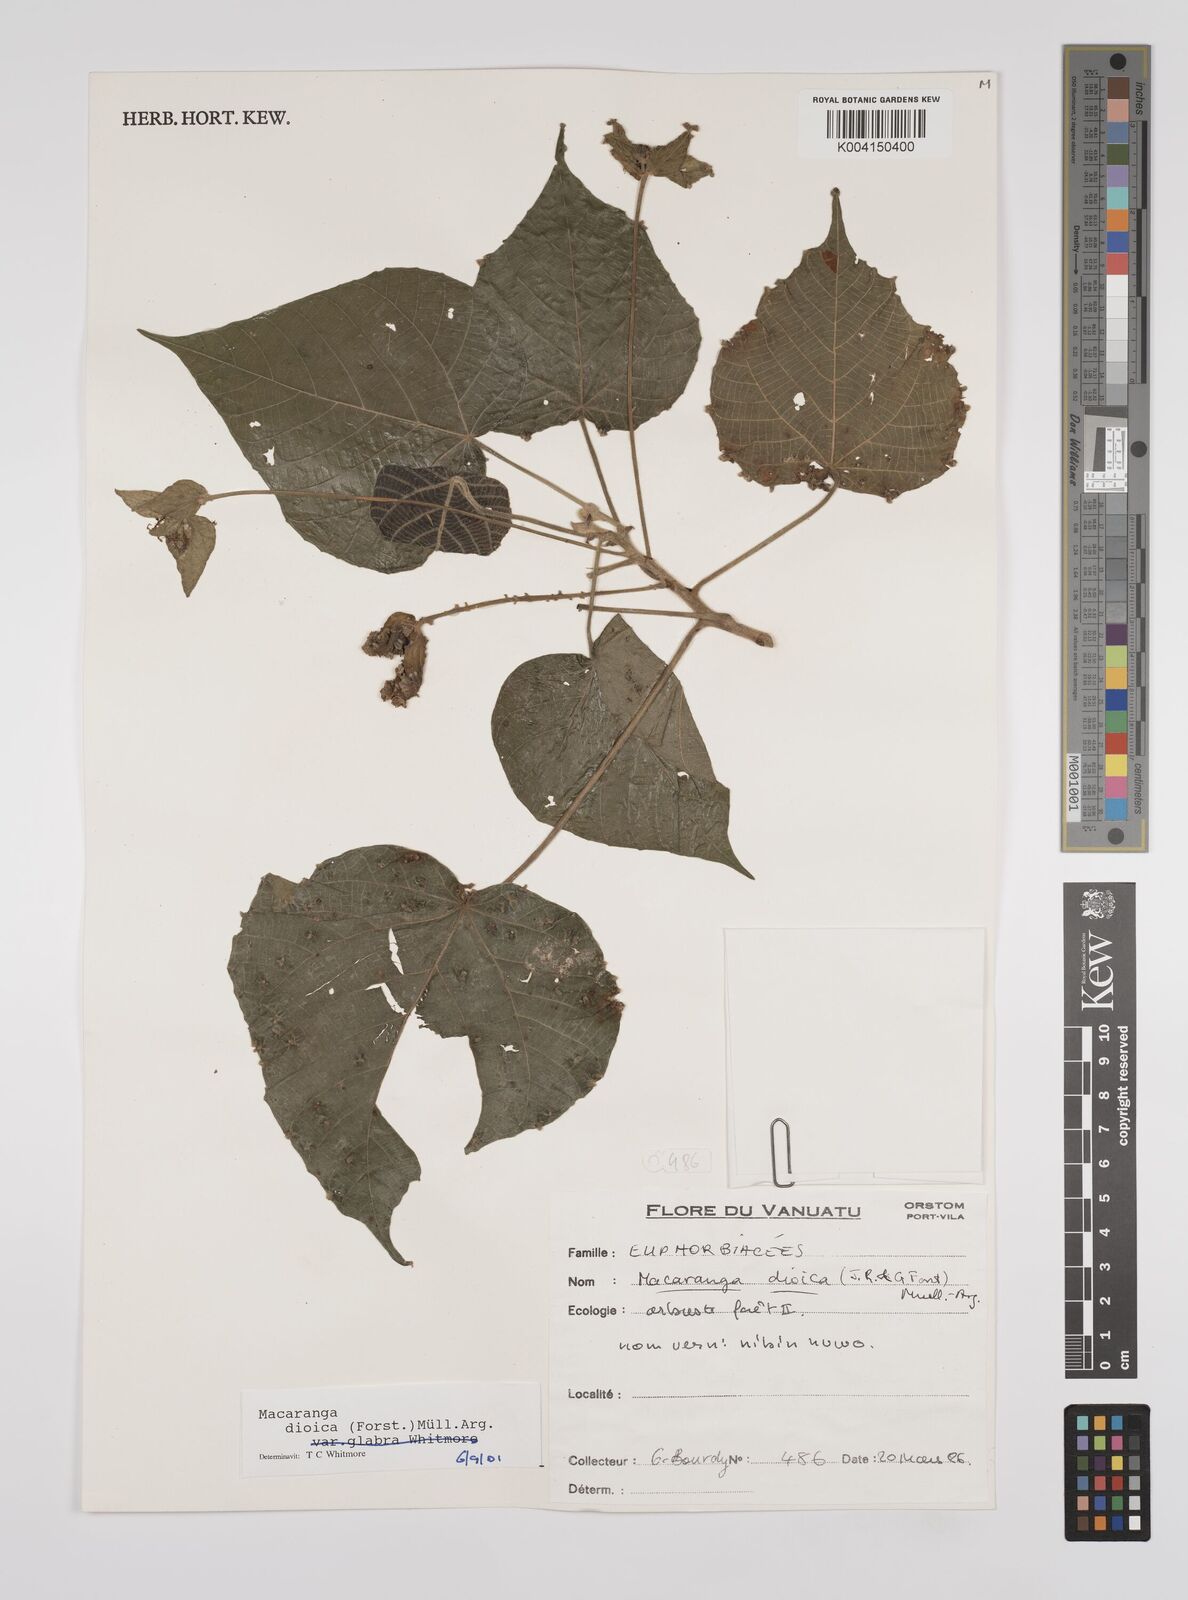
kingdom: Plantae
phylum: Tracheophyta
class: Magnoliopsida
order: Malpighiales
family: Euphorbiaceae
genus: Macaranga
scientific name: Macaranga dioica
